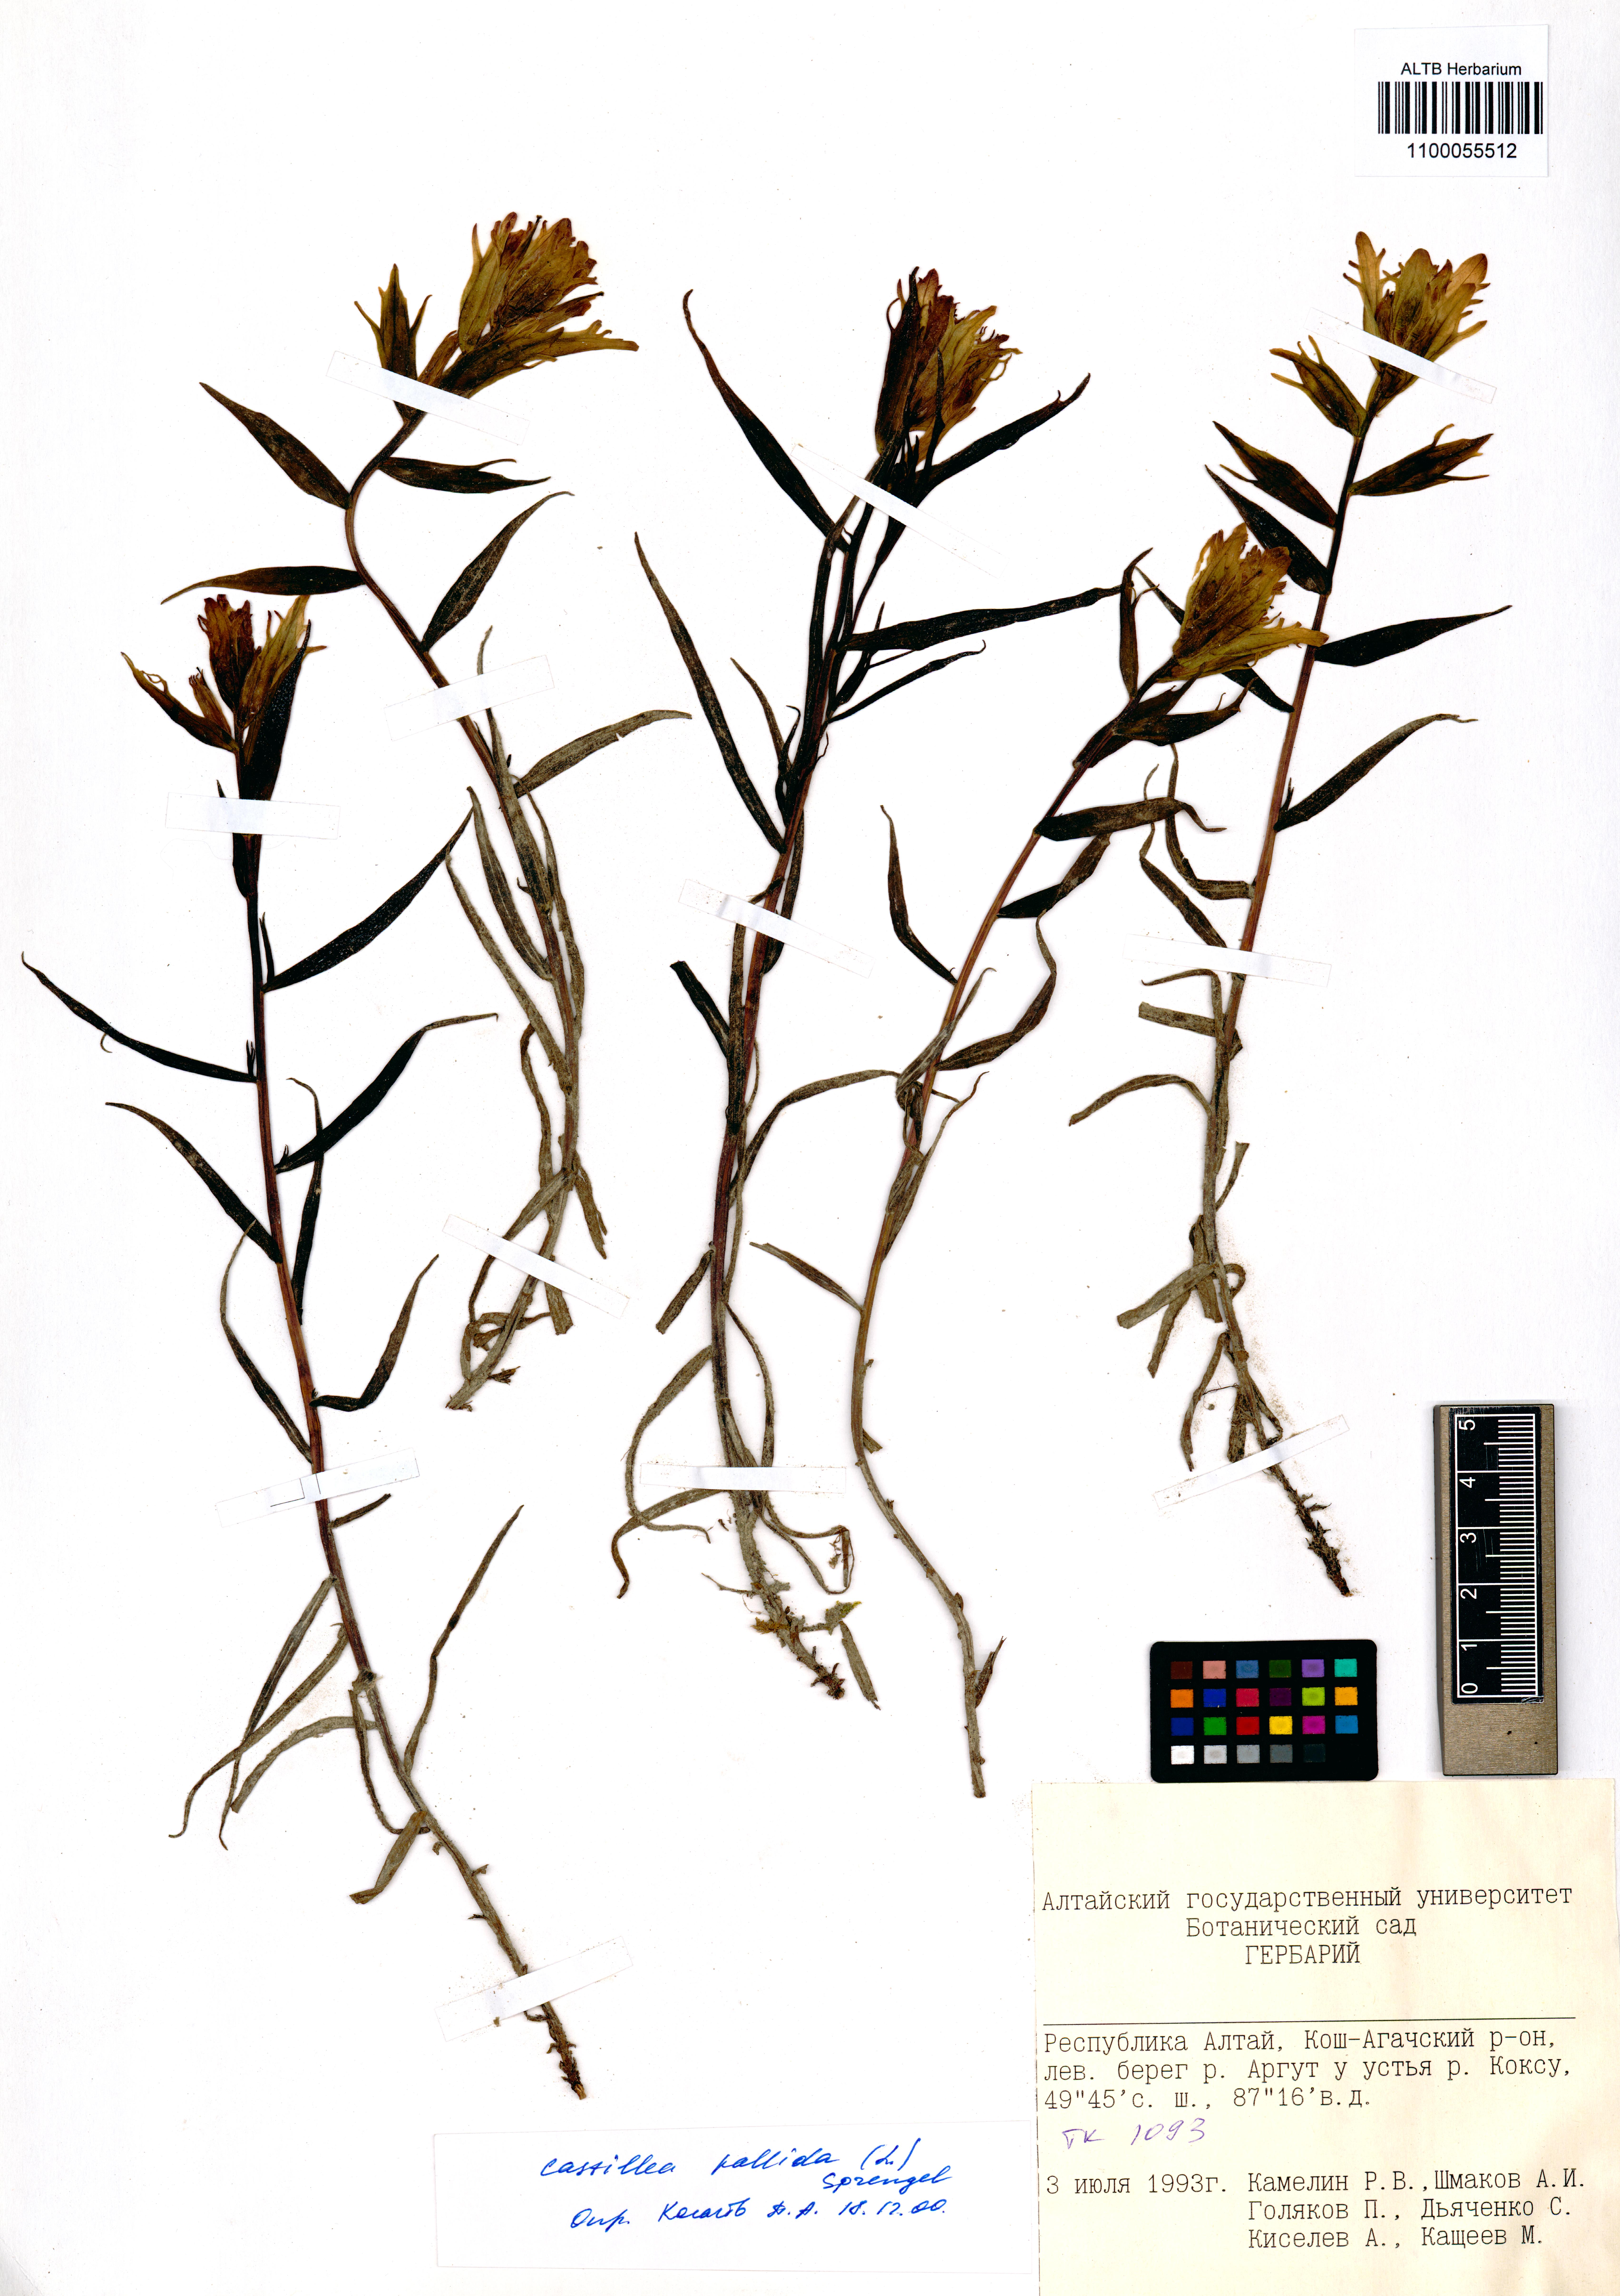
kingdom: Plantae
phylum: Tracheophyta
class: Magnoliopsida
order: Lamiales
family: Orobanchaceae
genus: Castilleja
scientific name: Castilleja pallida
